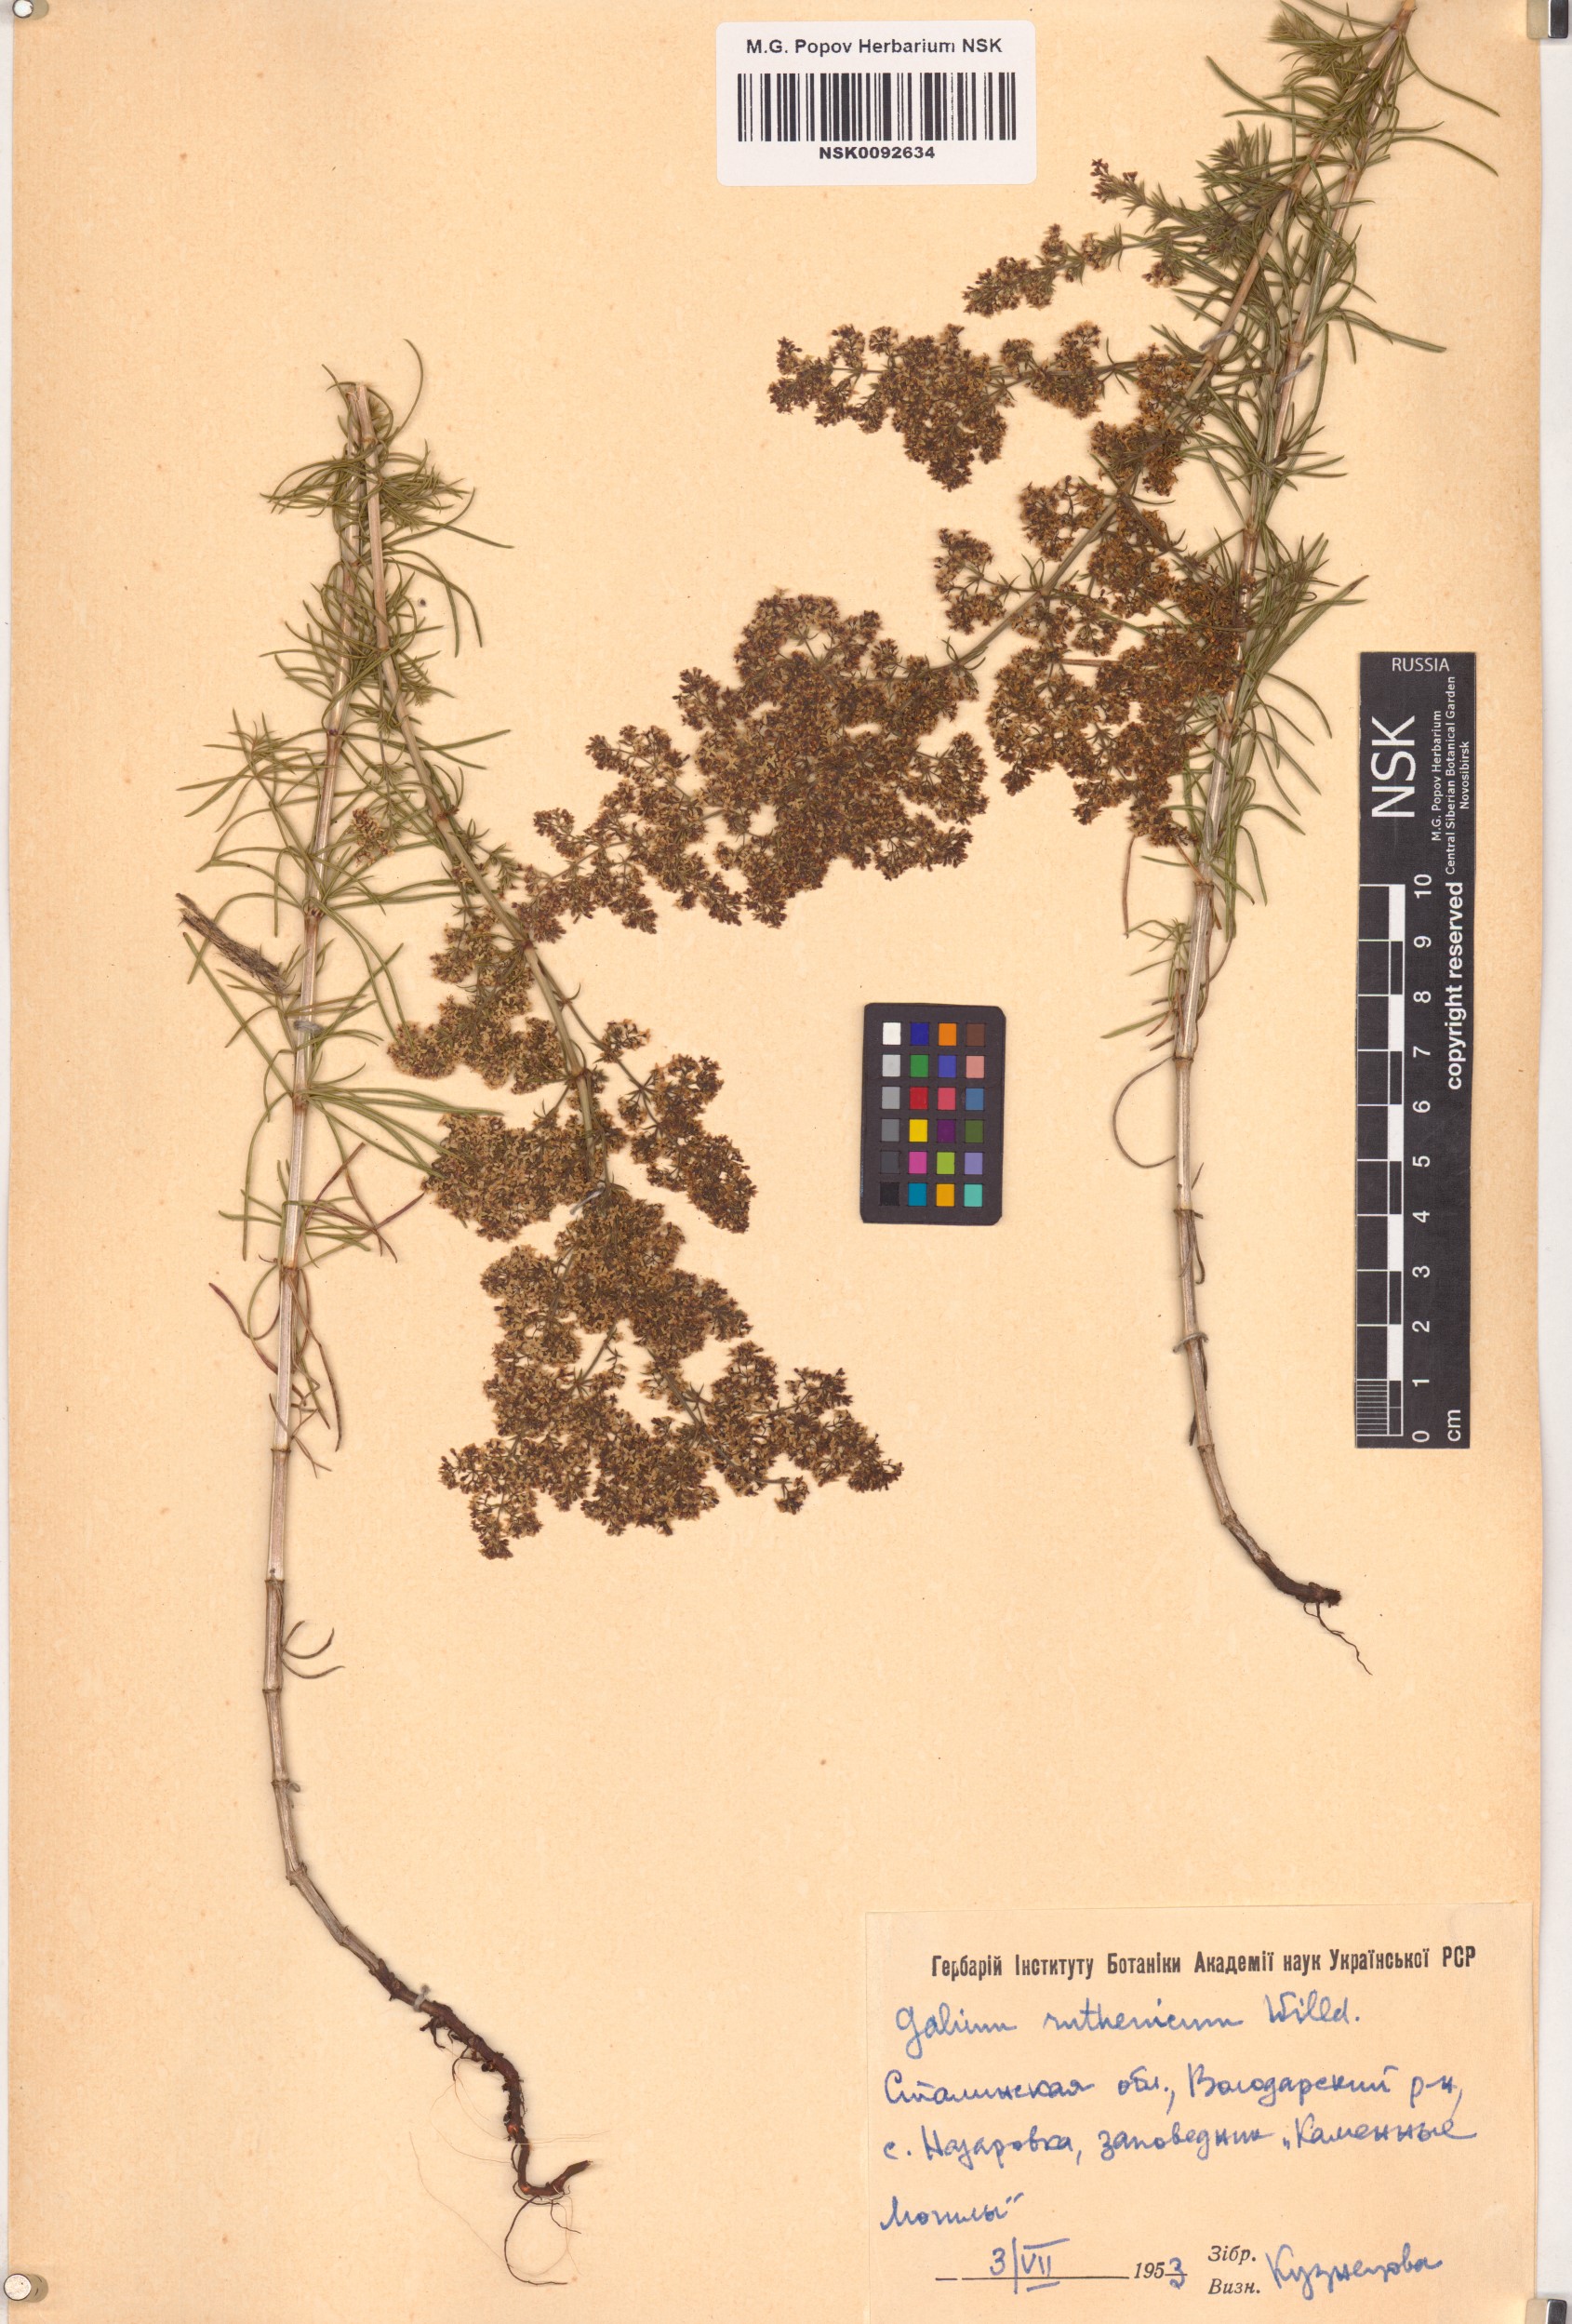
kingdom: Plantae
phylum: Tracheophyta
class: Magnoliopsida
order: Gentianales
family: Rubiaceae
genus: Galium
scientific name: Galium verum
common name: Lady's bedstraw
